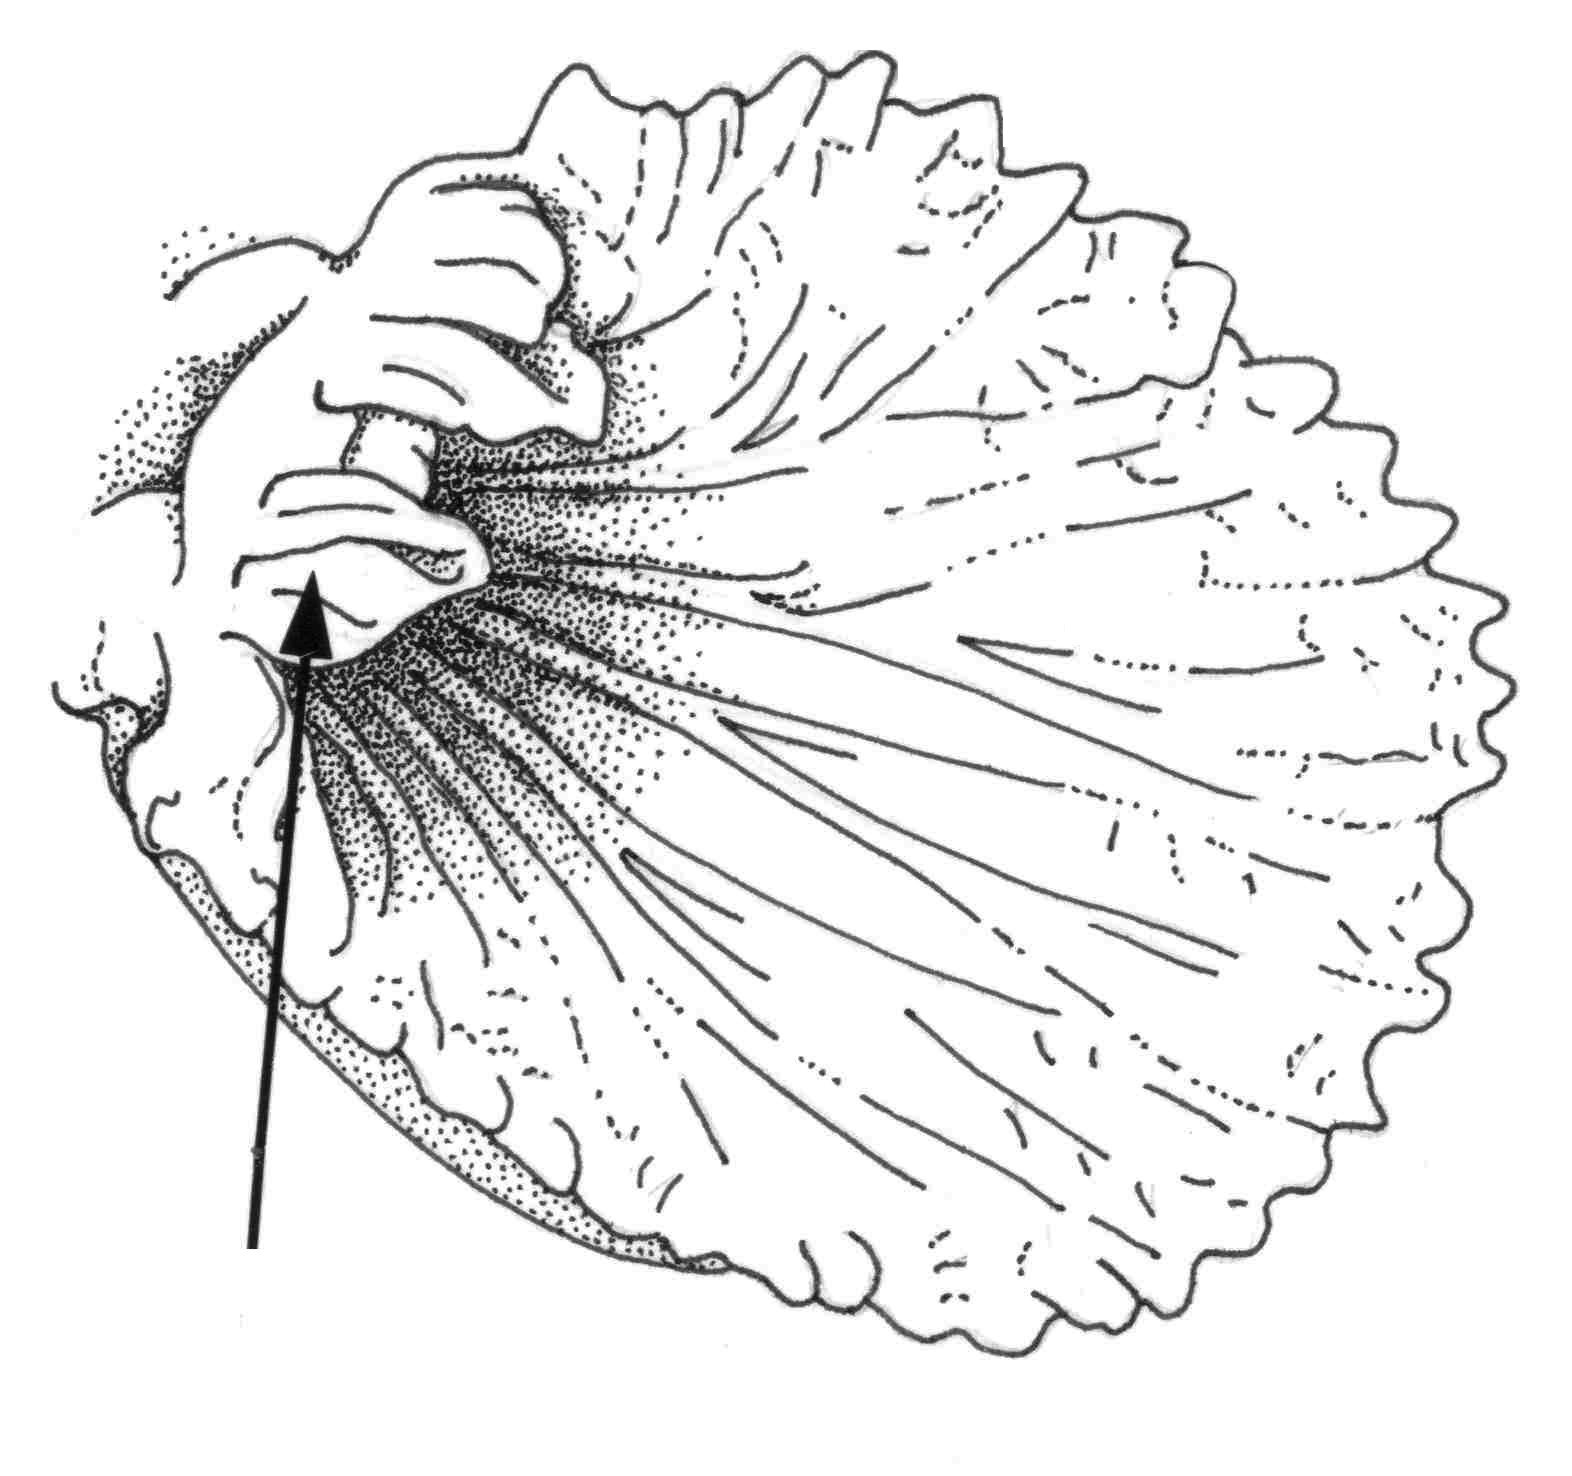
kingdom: Animalia
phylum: Chordata
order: Perciformes
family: Gobiidae
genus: Bryaninops
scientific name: Bryaninops
